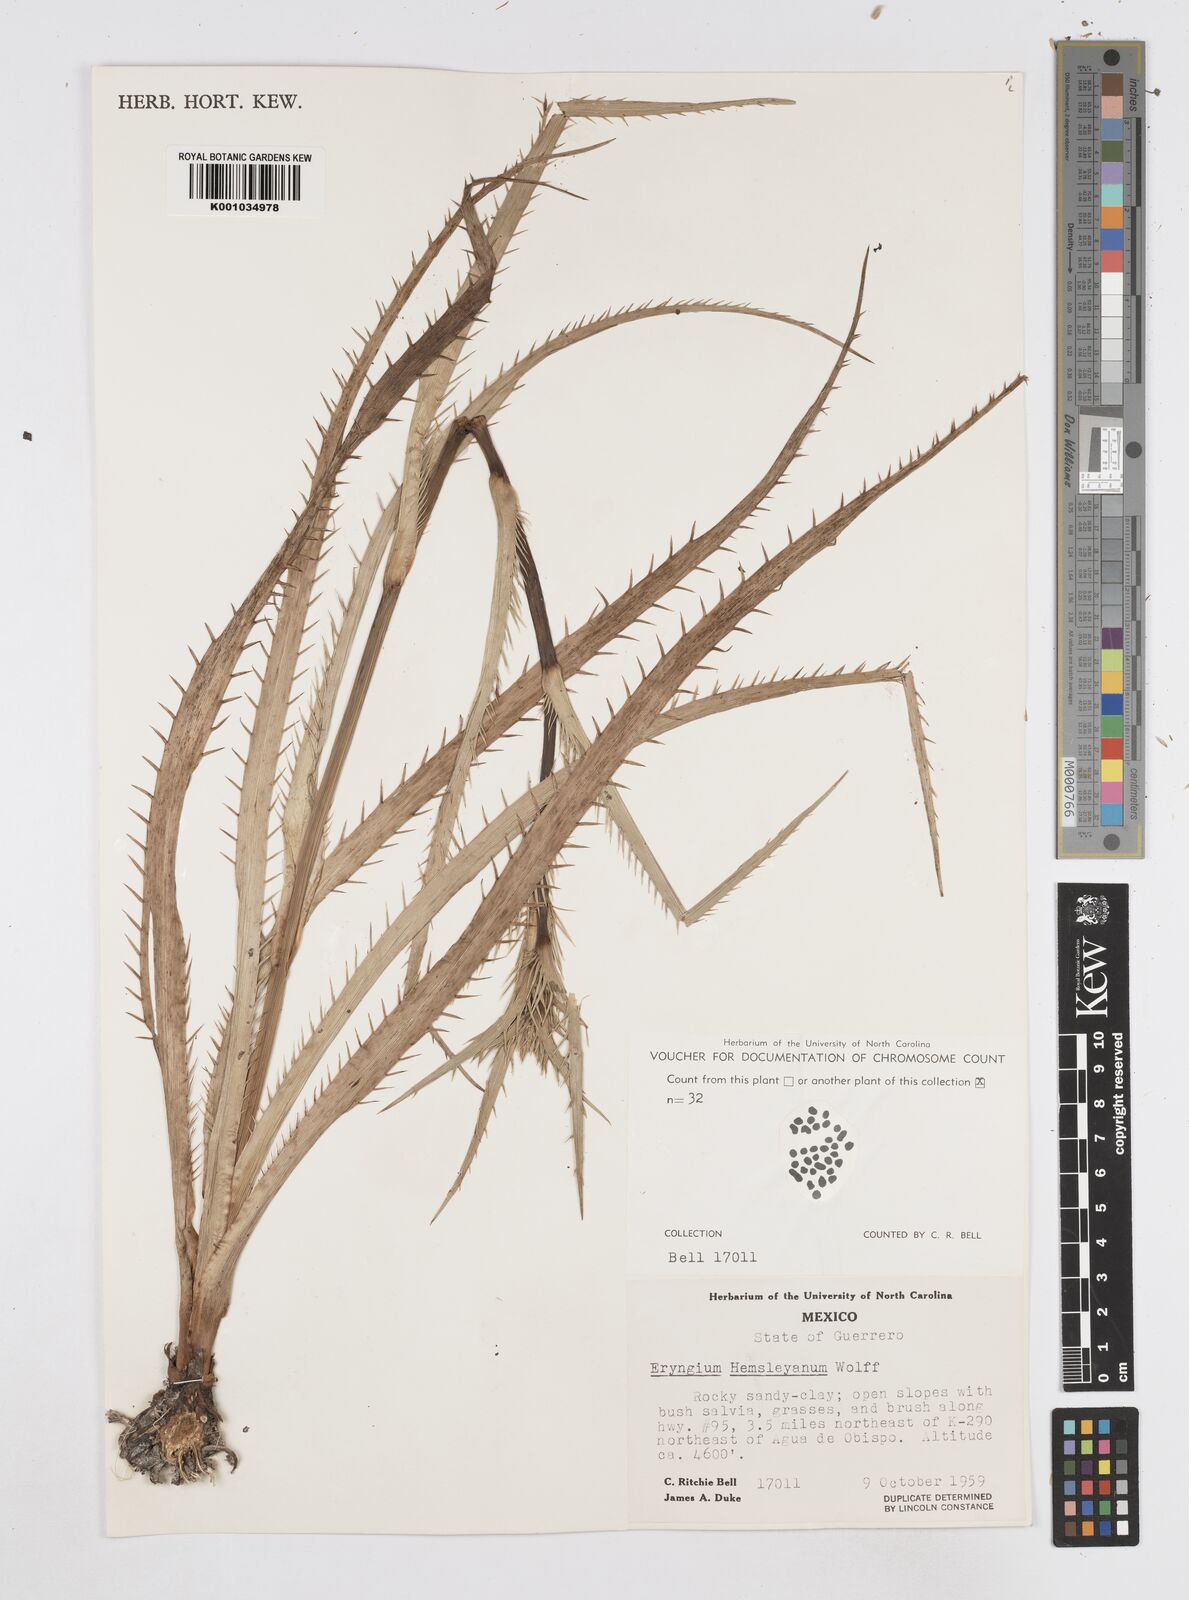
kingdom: Plantae
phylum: Tracheophyta
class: Magnoliopsida
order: Apiales
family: Apiaceae
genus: Eryngium
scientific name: Eryngium hemsleyanum
